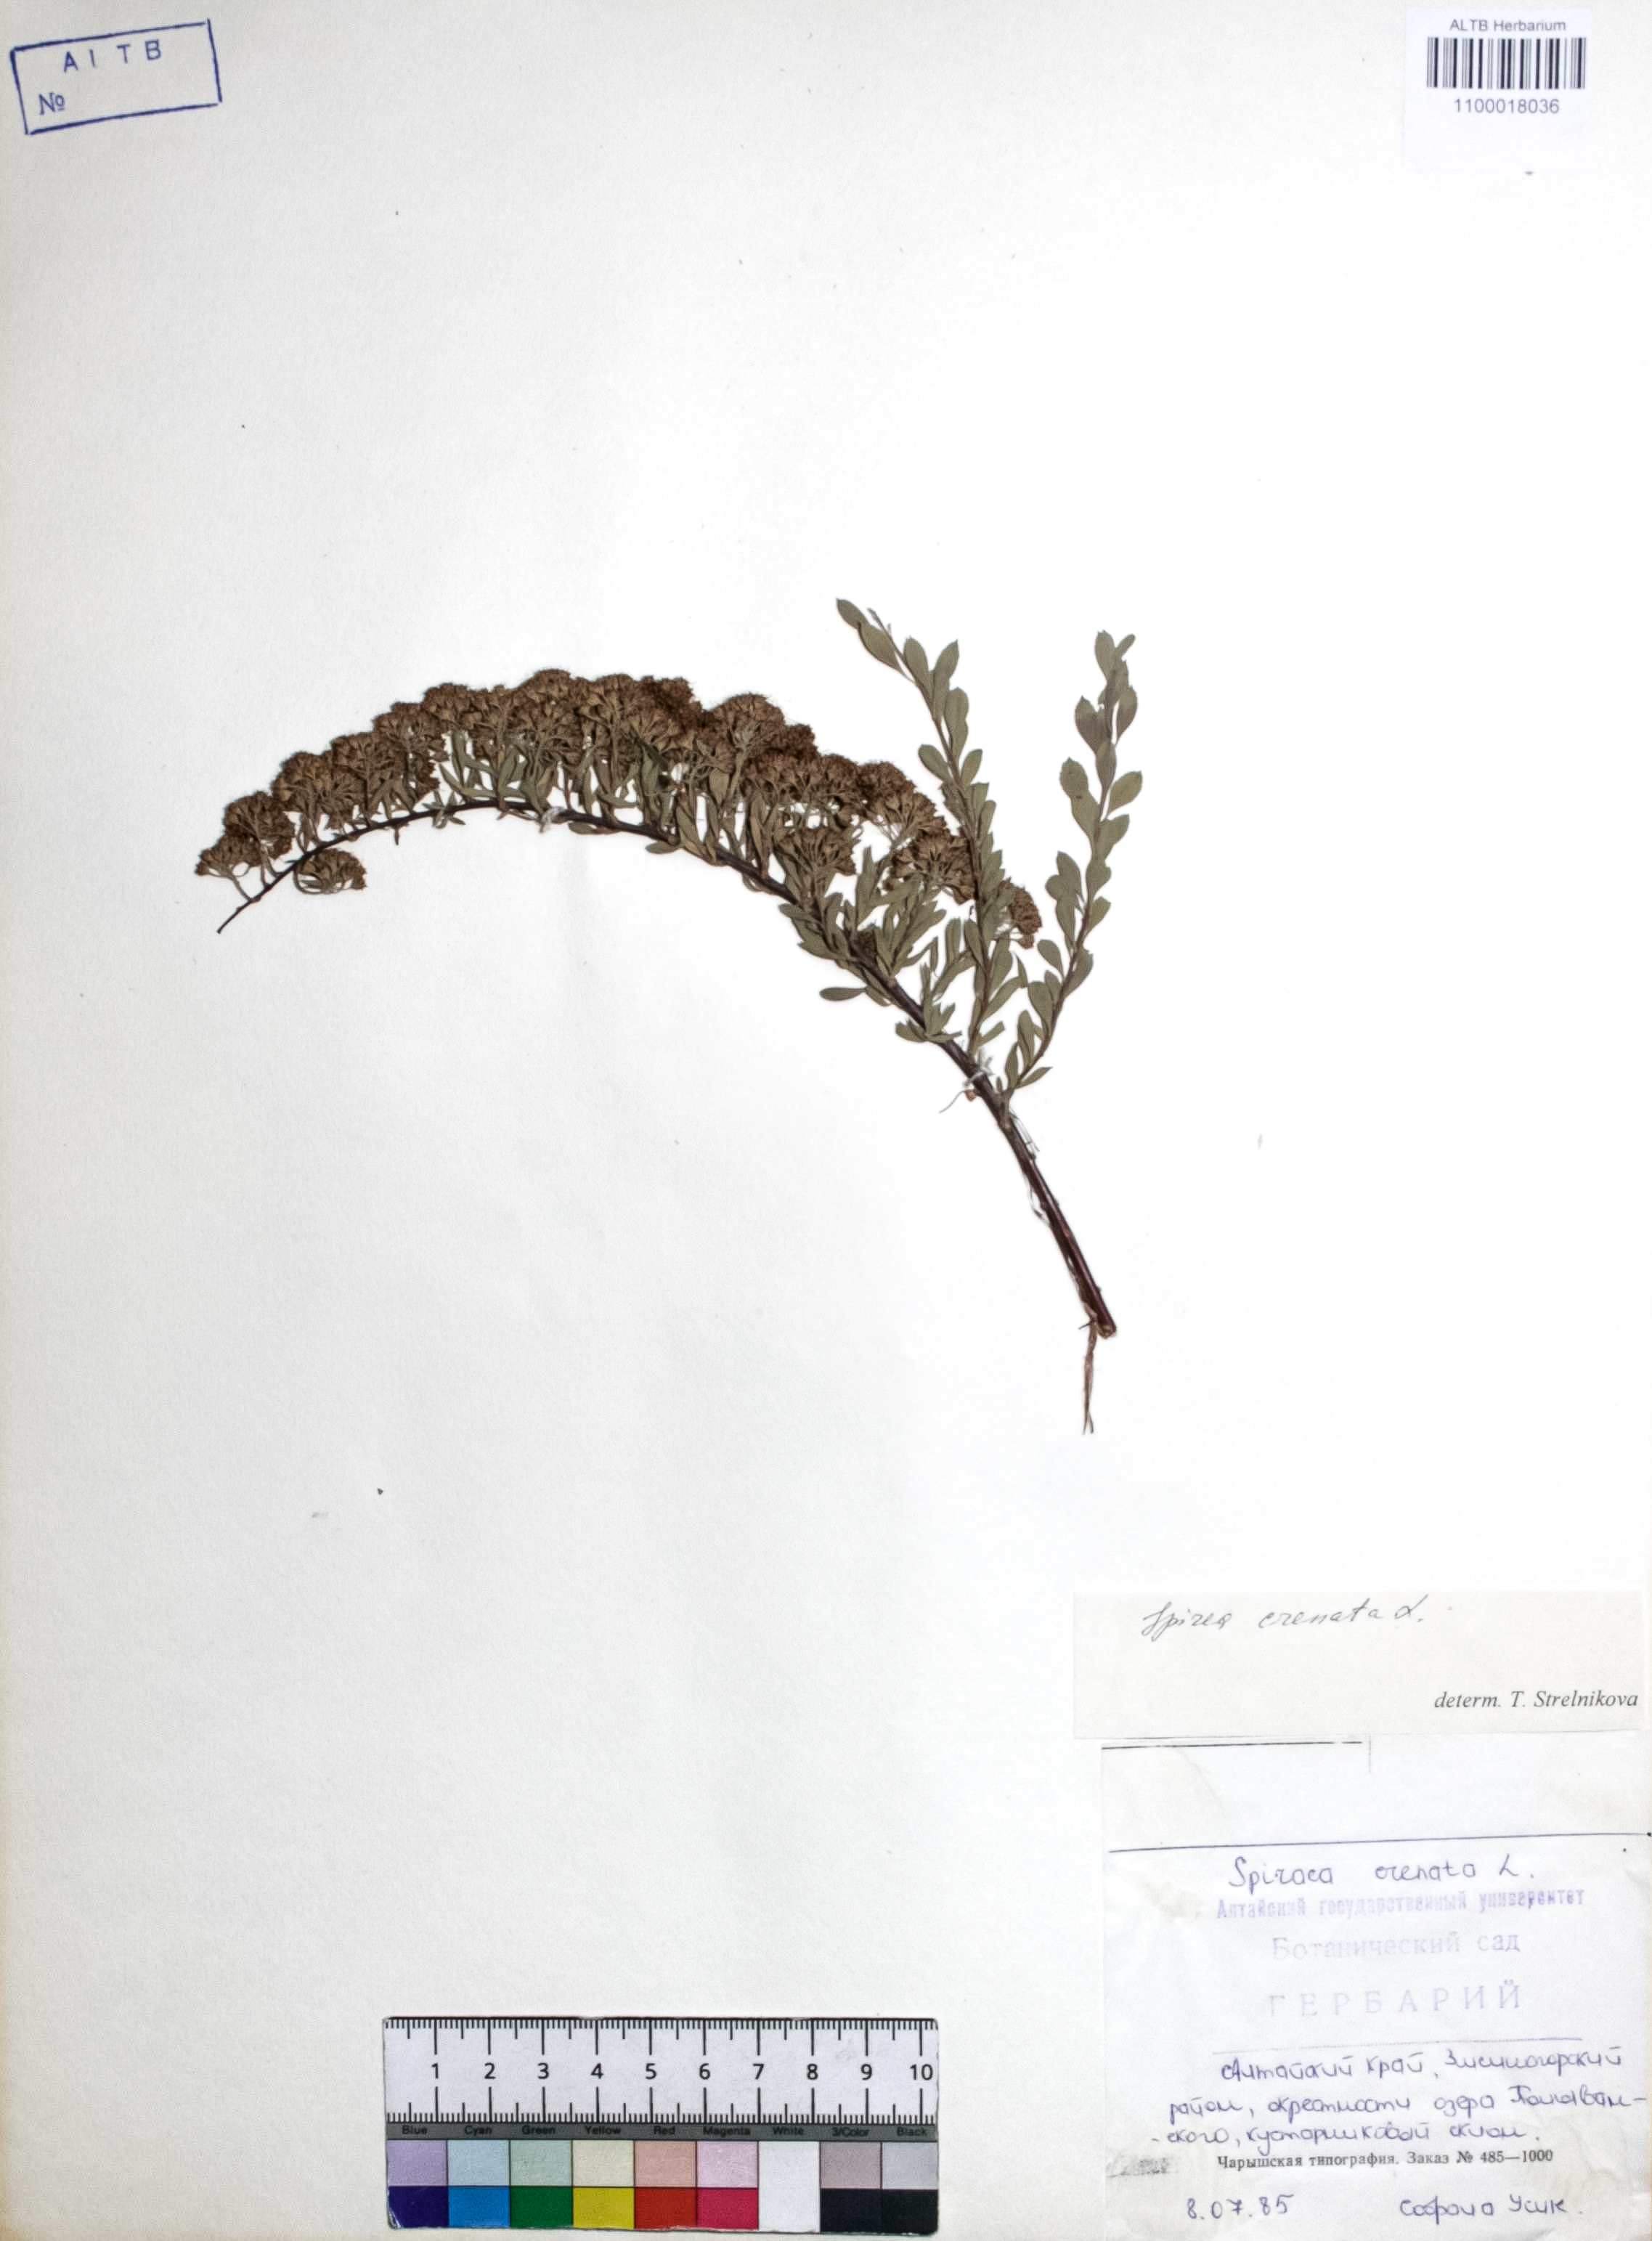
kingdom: Plantae
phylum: Tracheophyta
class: Magnoliopsida
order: Rosales
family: Rosaceae
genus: Spiraea
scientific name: Spiraea crenata
